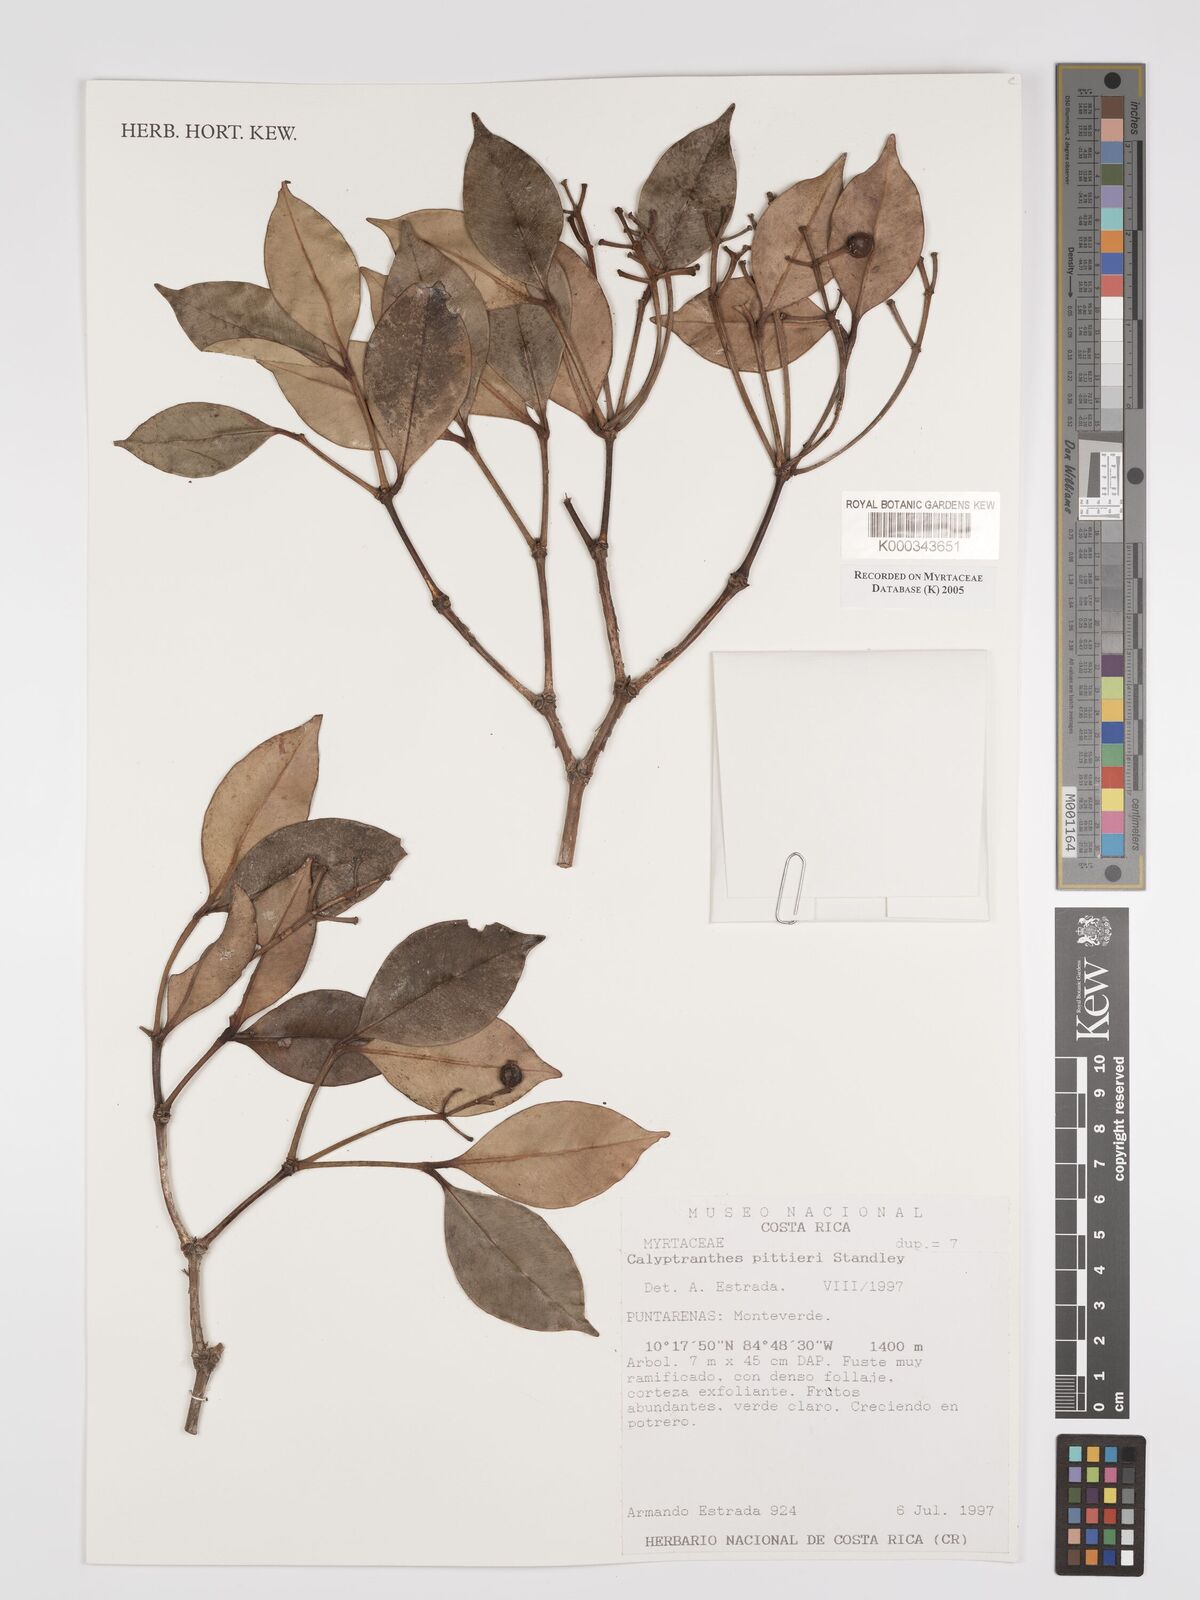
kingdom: Plantae
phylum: Tracheophyta
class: Magnoliopsida
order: Myrtales
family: Myrtaceae
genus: Myrcia
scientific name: Myrcia pittieri
